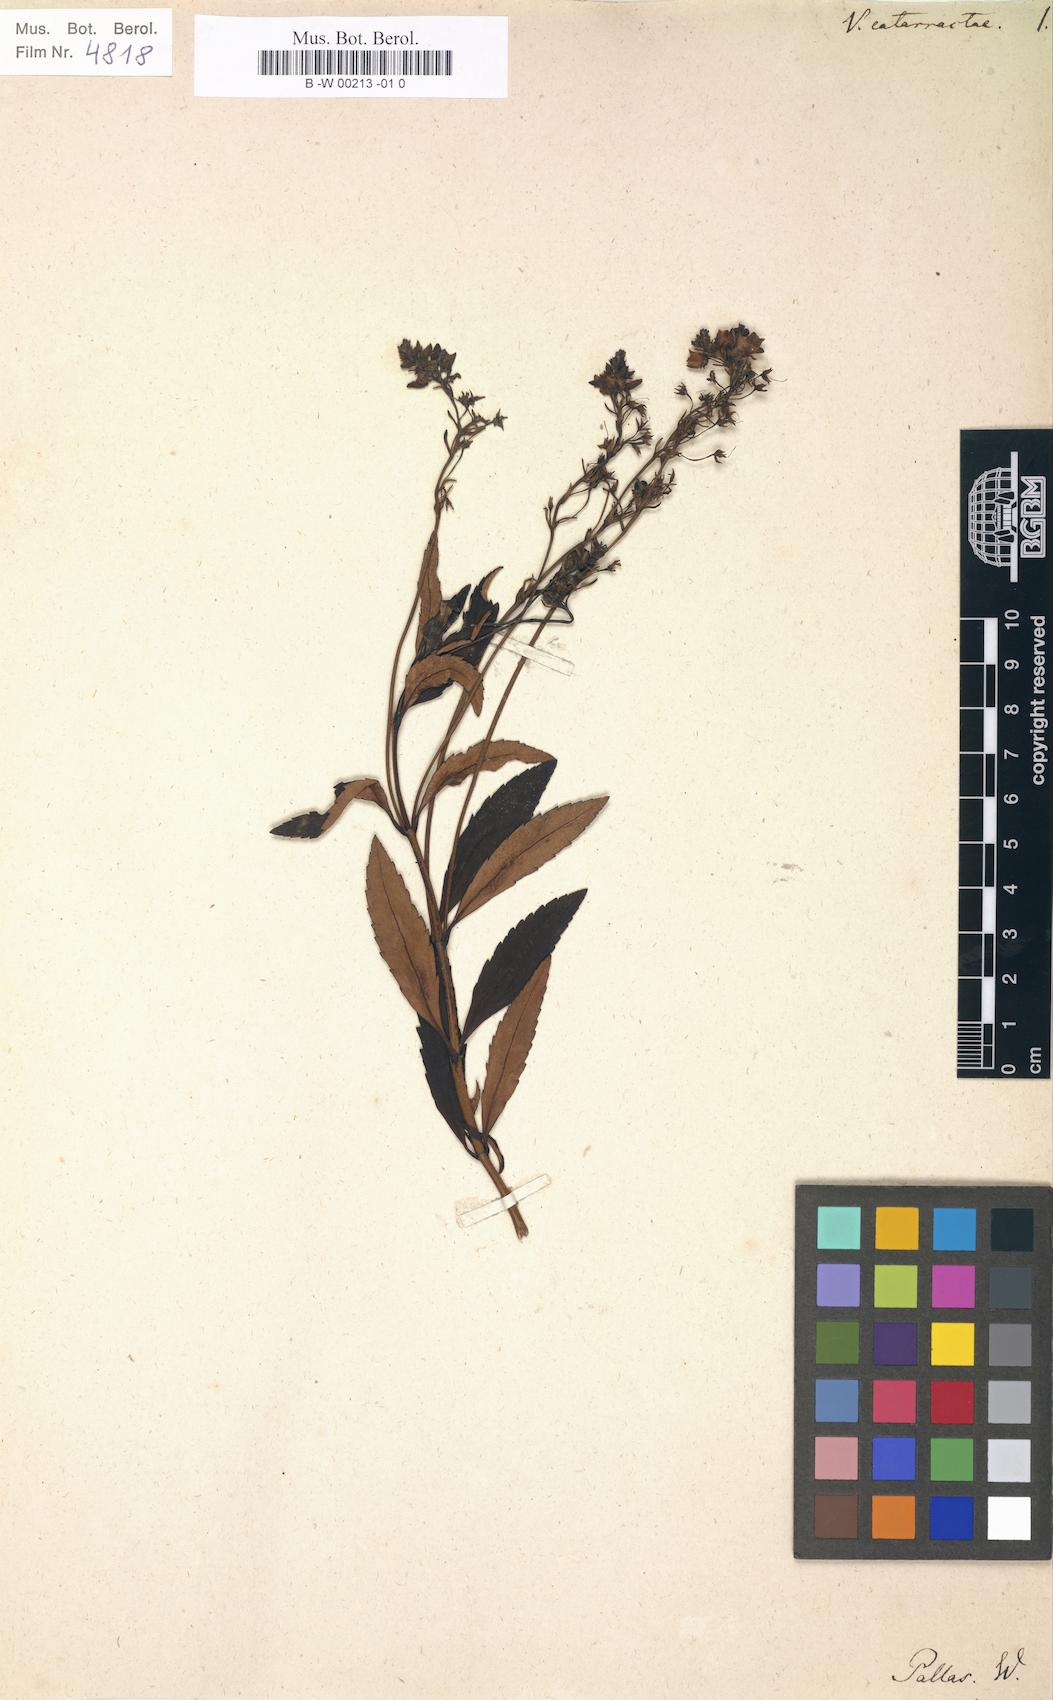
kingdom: Plantae
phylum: Tracheophyta
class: Magnoliopsida
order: Lamiales
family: Plantaginaceae
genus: Veronica
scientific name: Veronica catarractae
